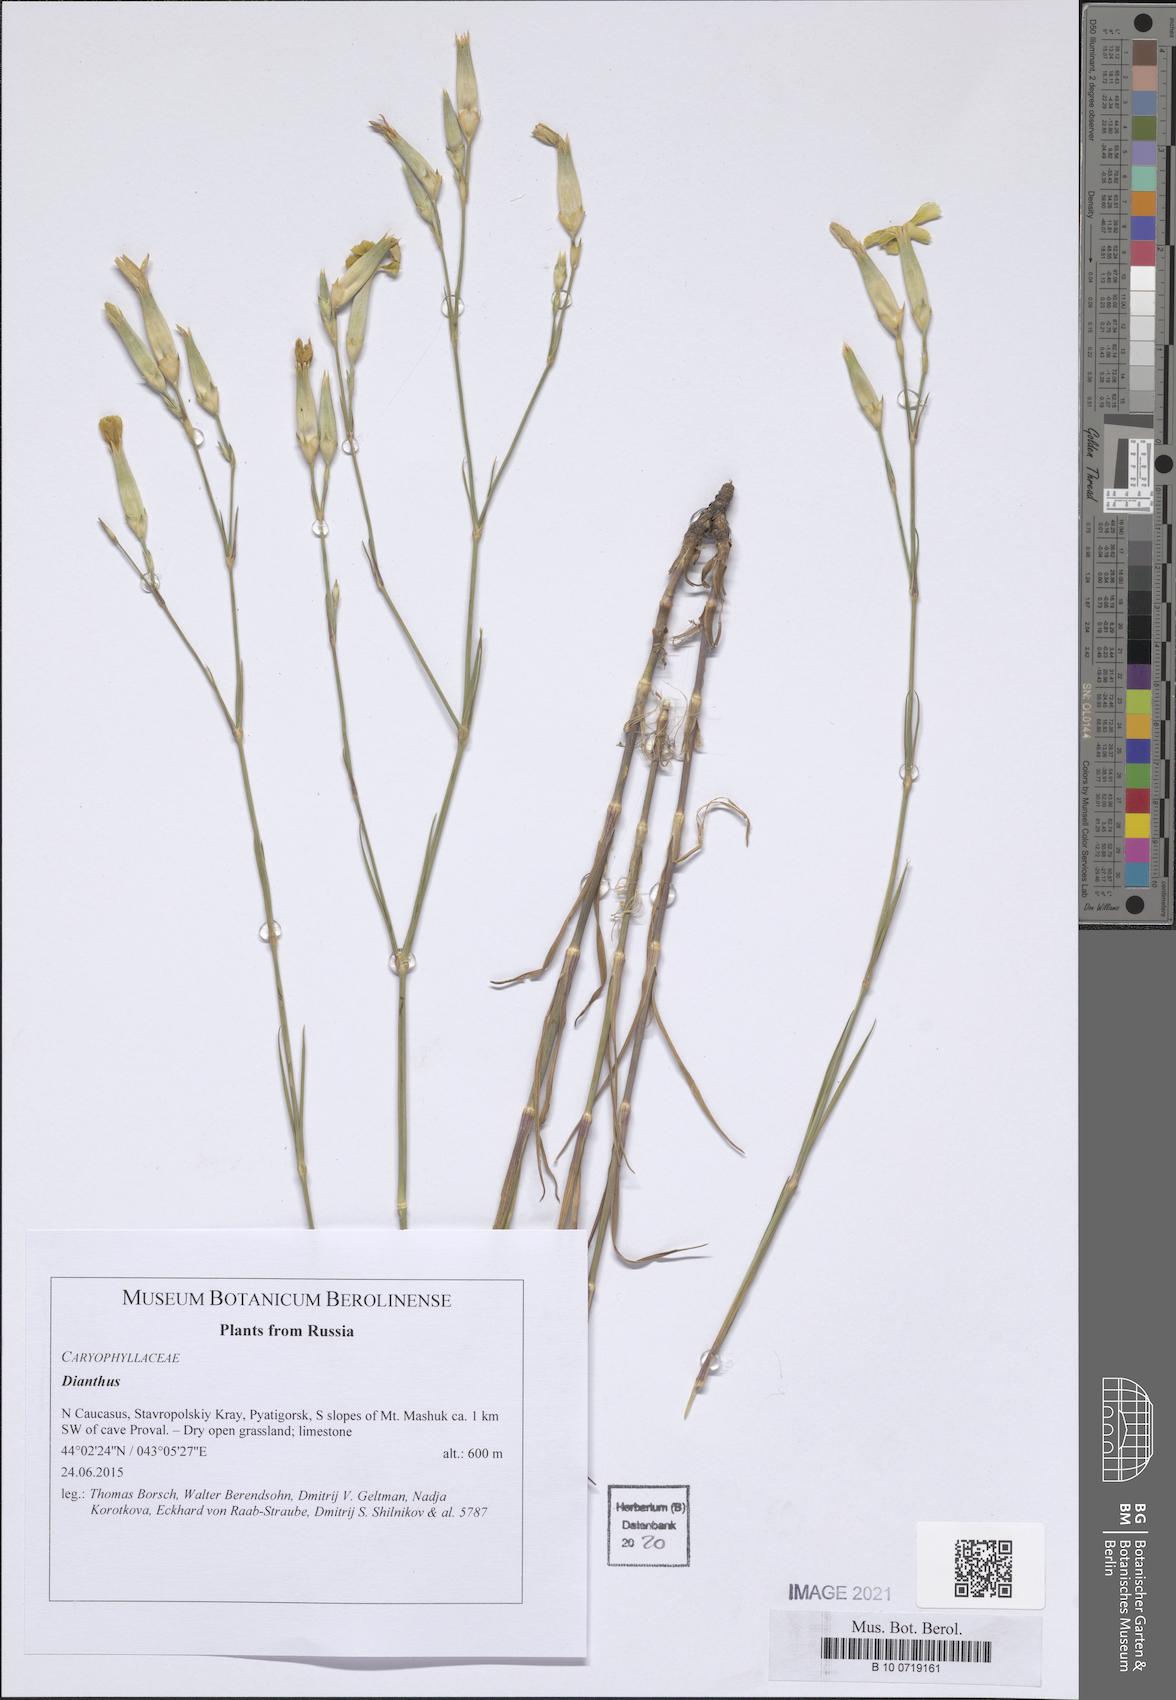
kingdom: Plantae
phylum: Tracheophyta
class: Magnoliopsida
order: Caryophyllales
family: Caryophyllaceae
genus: Dianthus
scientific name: Dianthus
